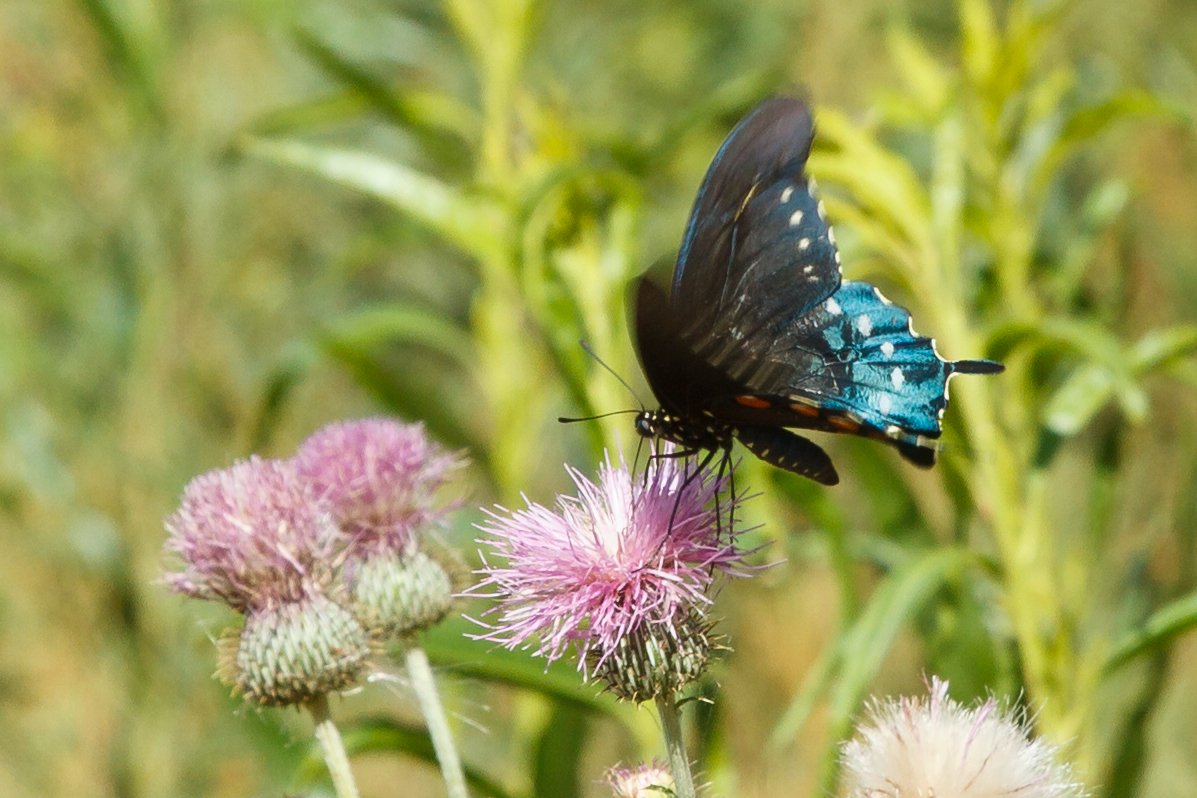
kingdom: Animalia
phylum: Arthropoda
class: Insecta
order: Lepidoptera
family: Papilionidae
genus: Battus
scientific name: Battus philenor
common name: Pipevine Swallowtail
